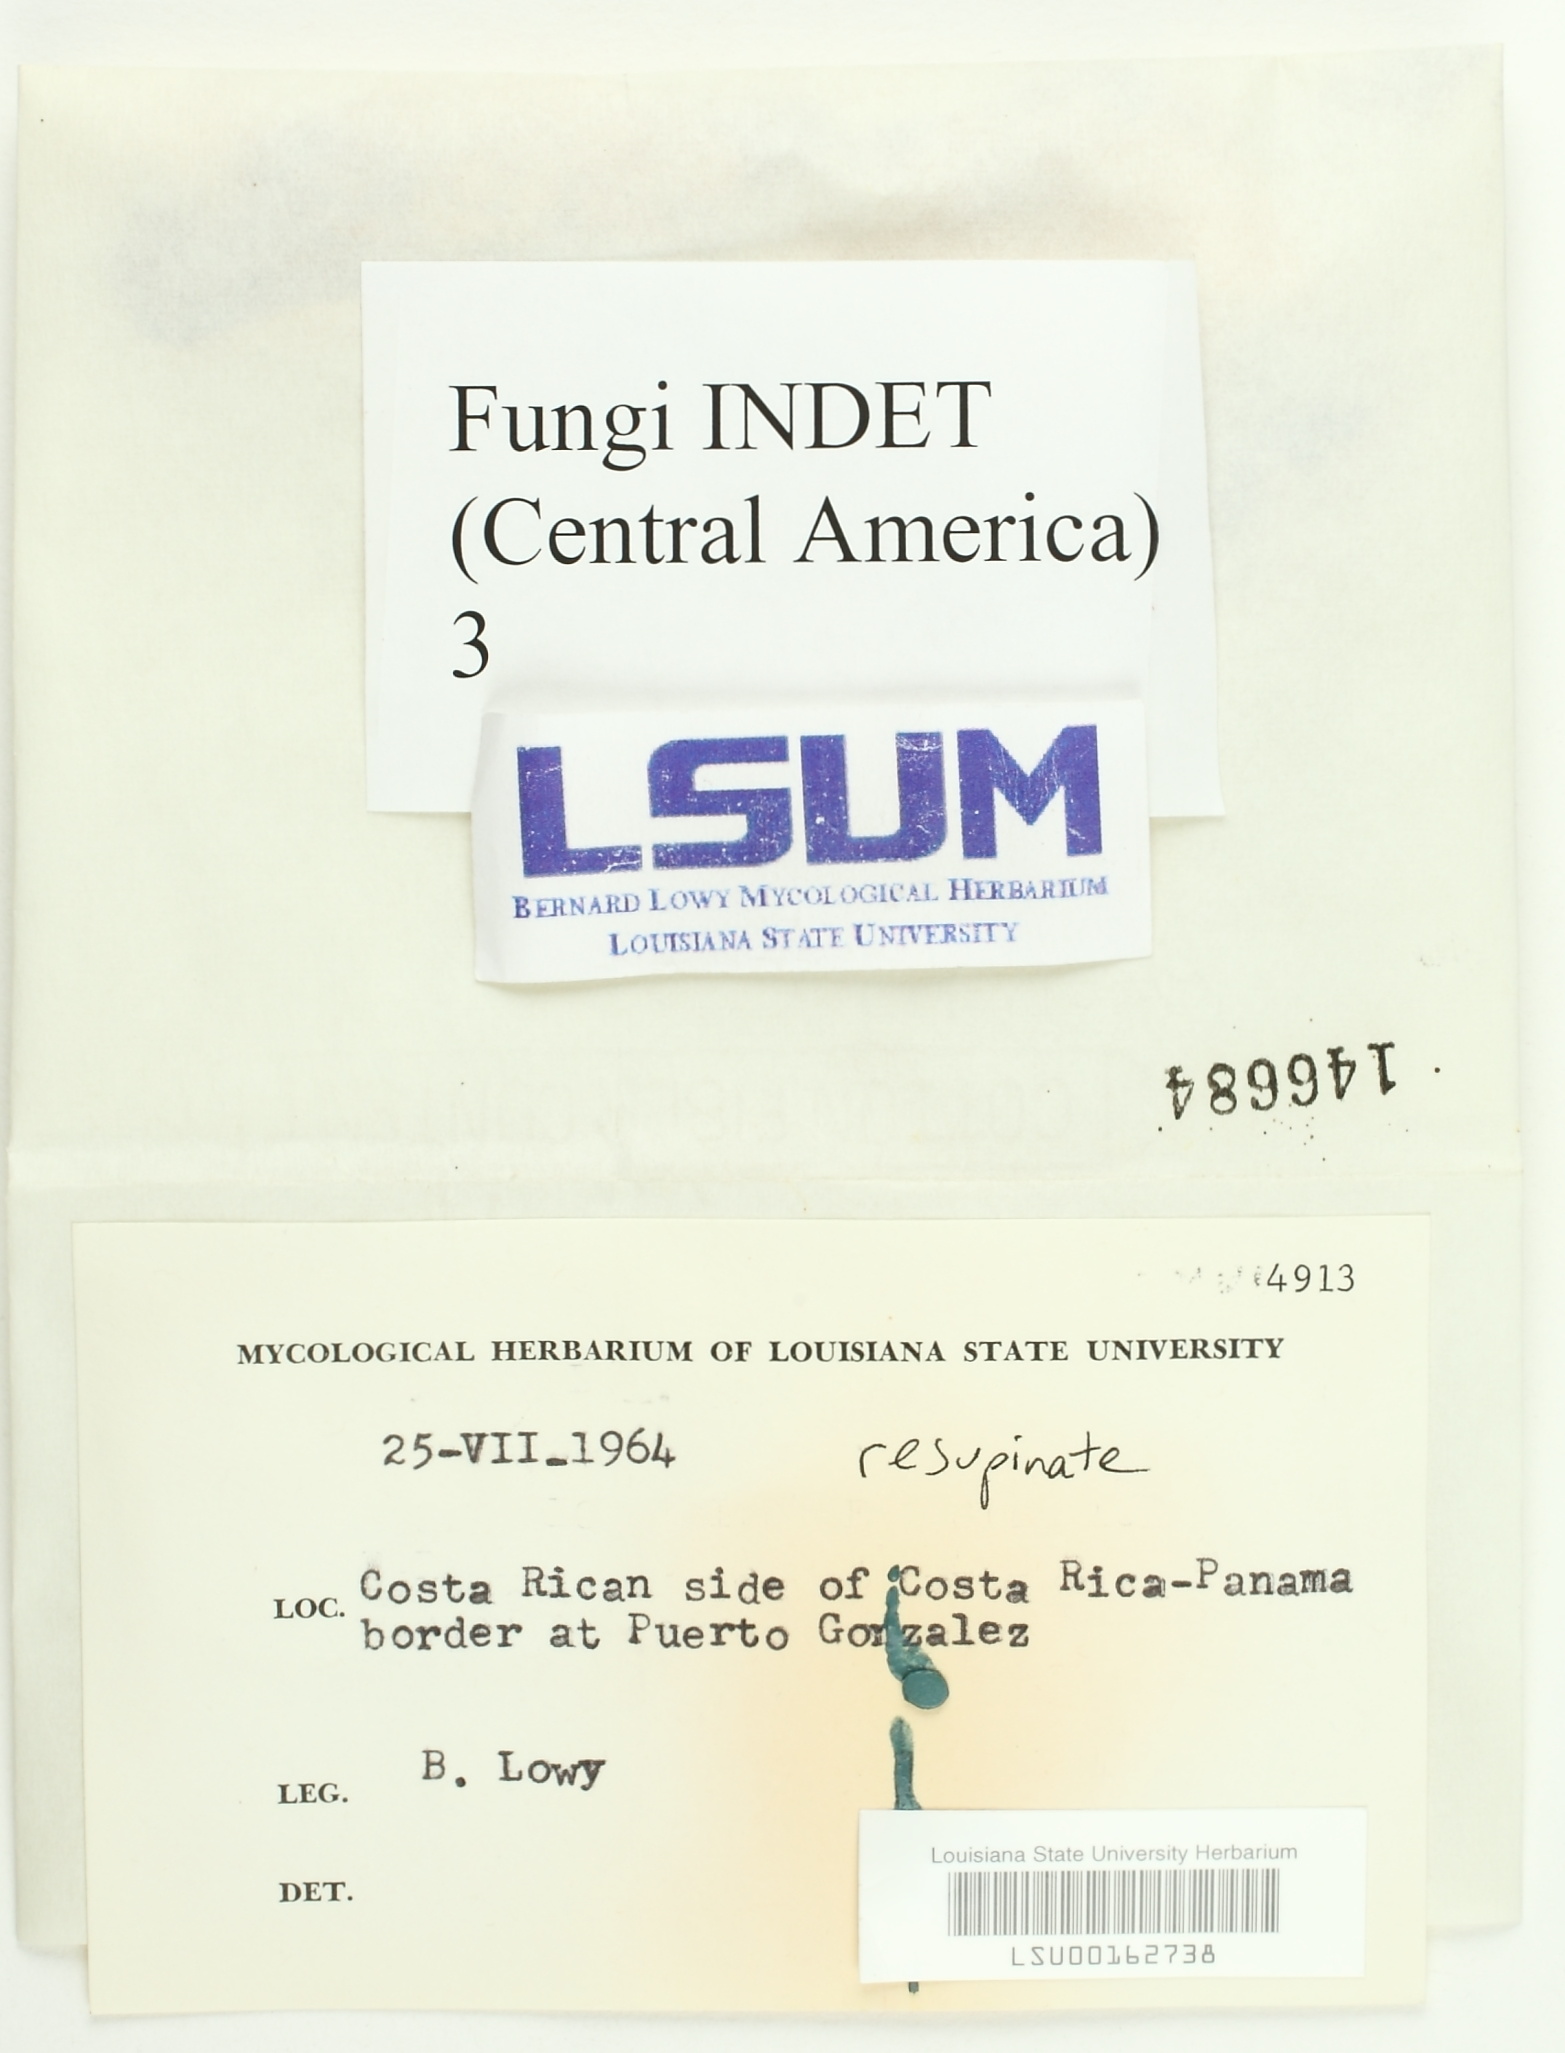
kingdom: Fungi
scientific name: Fungi
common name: Fungi
